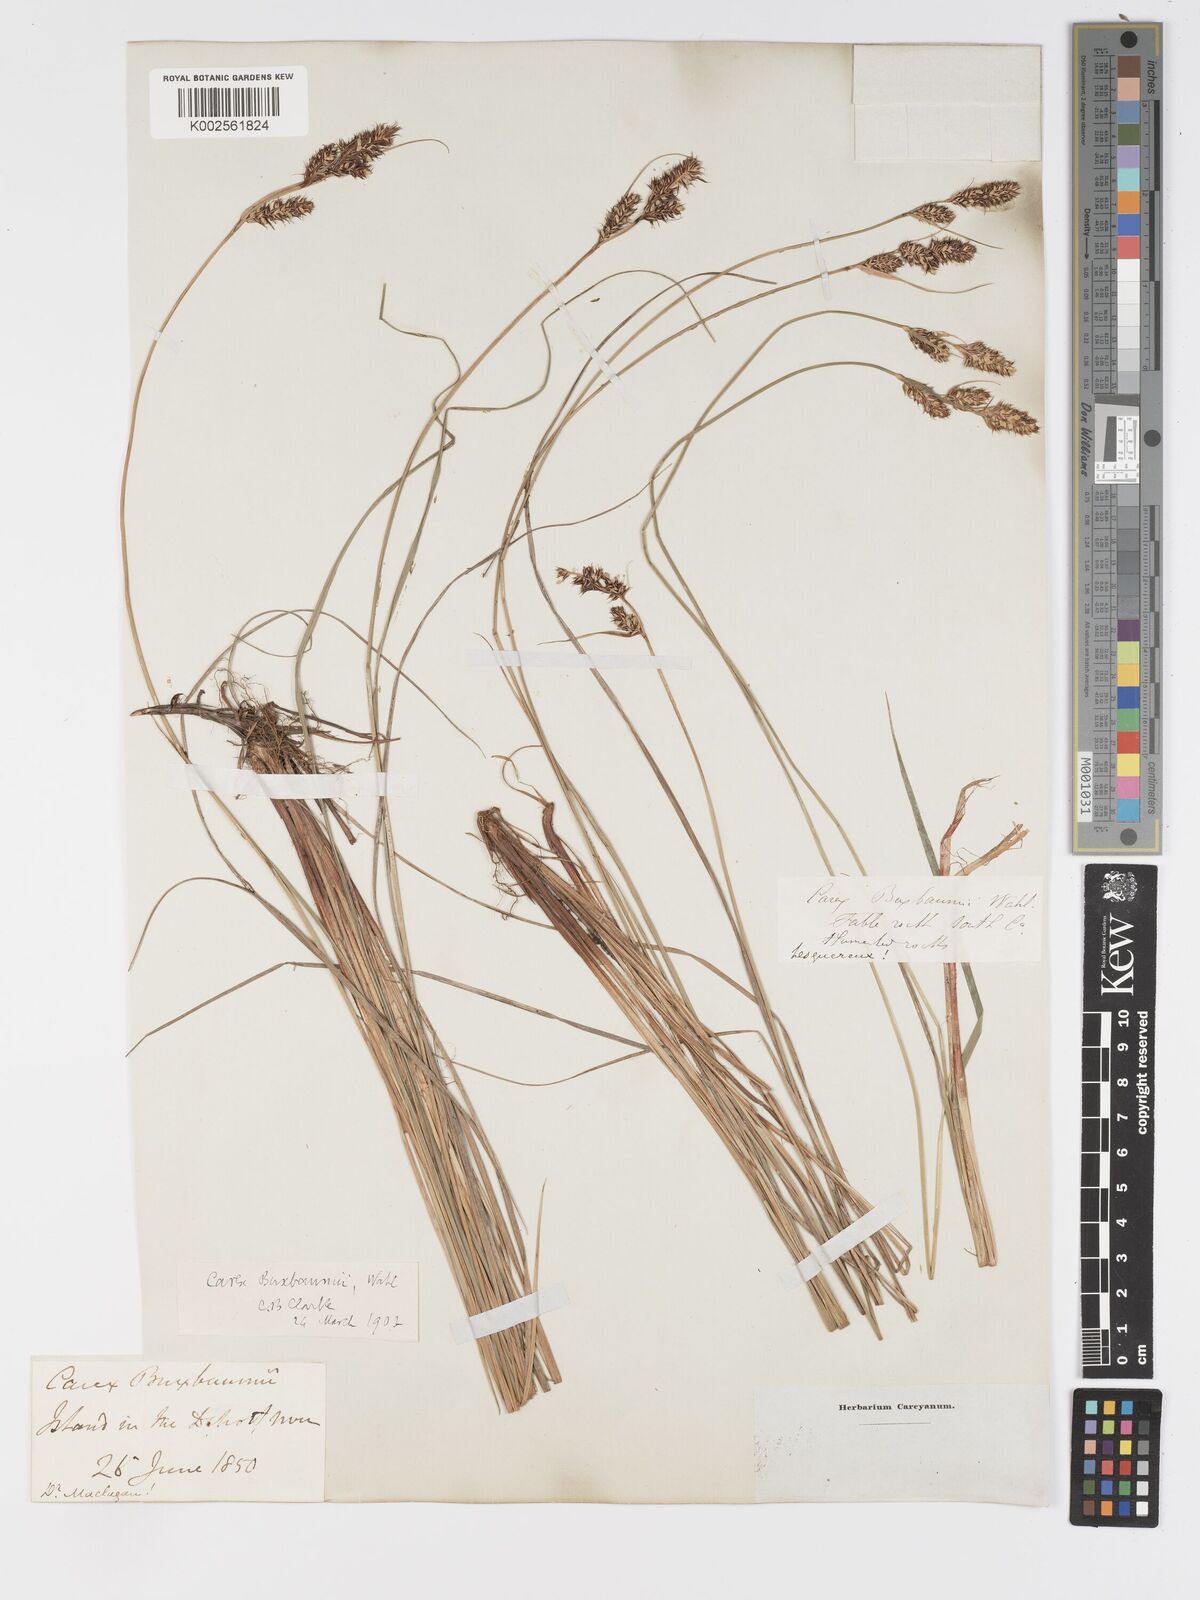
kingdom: Plantae
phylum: Tracheophyta
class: Liliopsida
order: Poales
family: Cyperaceae
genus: Carex
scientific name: Carex buxbaumii
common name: Club sedge
